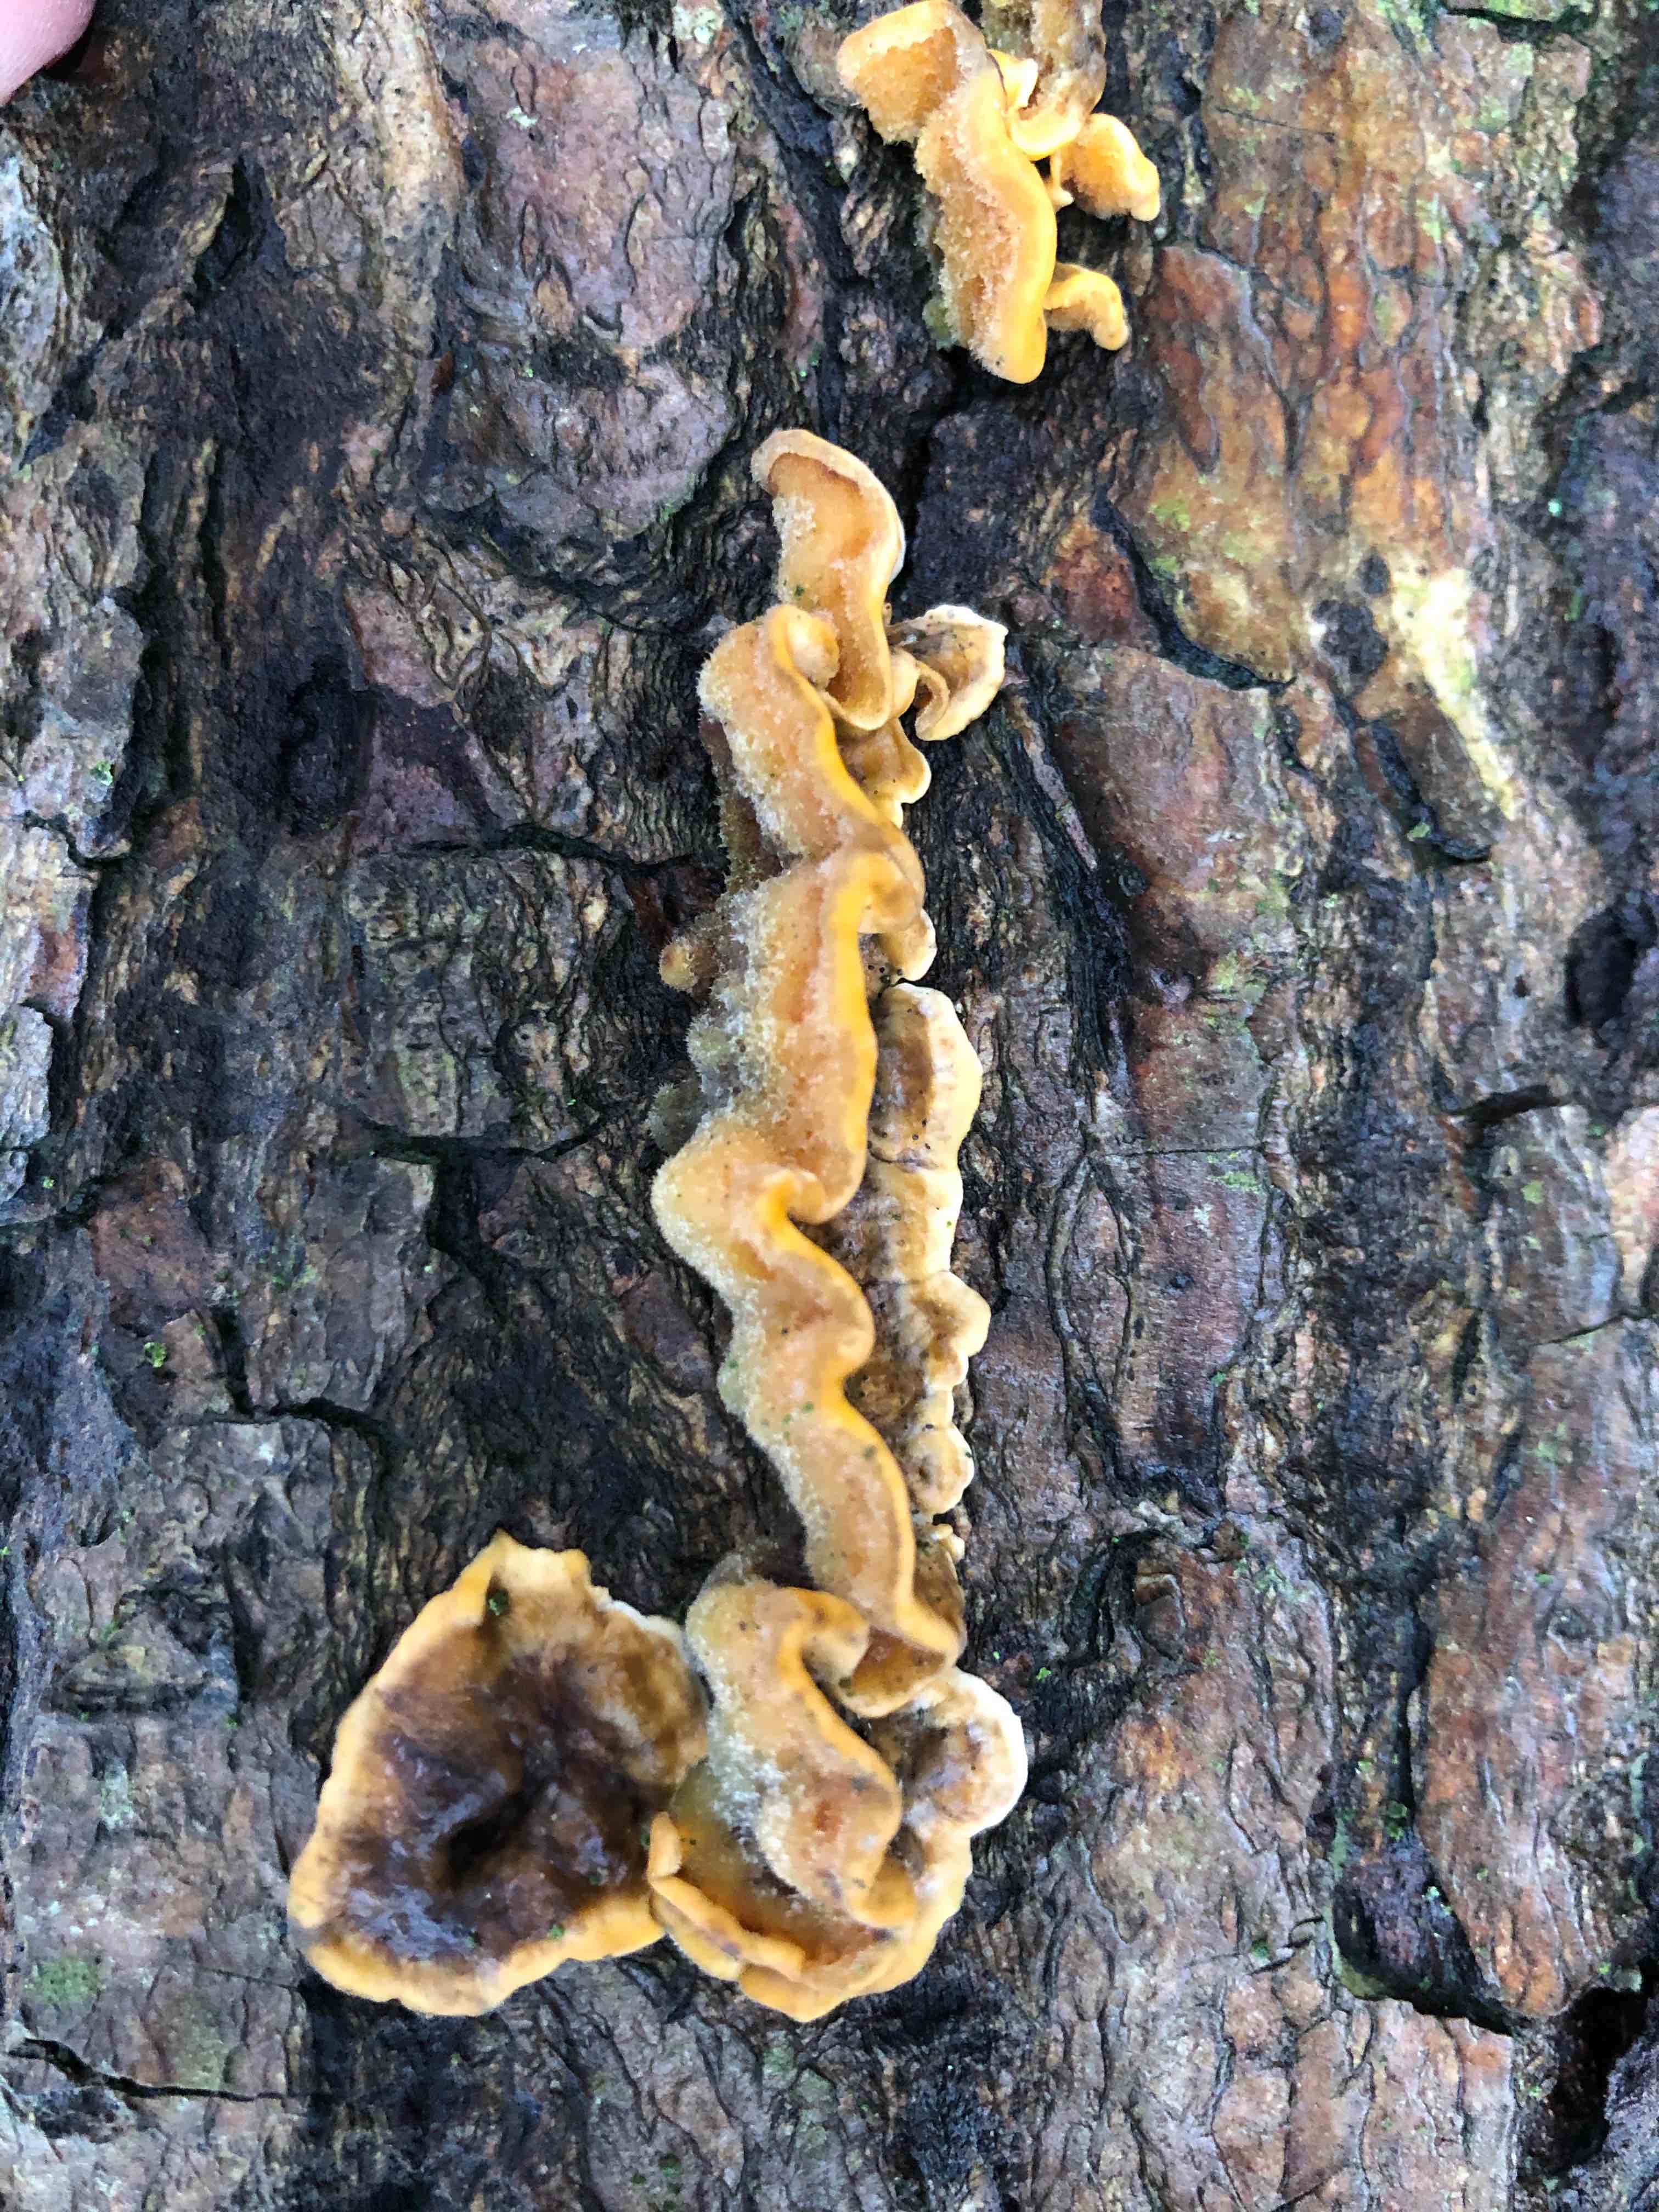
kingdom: Fungi
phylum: Basidiomycota
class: Agaricomycetes
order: Polyporales
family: Polyporaceae
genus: Trametes
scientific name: Trametes hirsuta
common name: håret læderporesvamp
